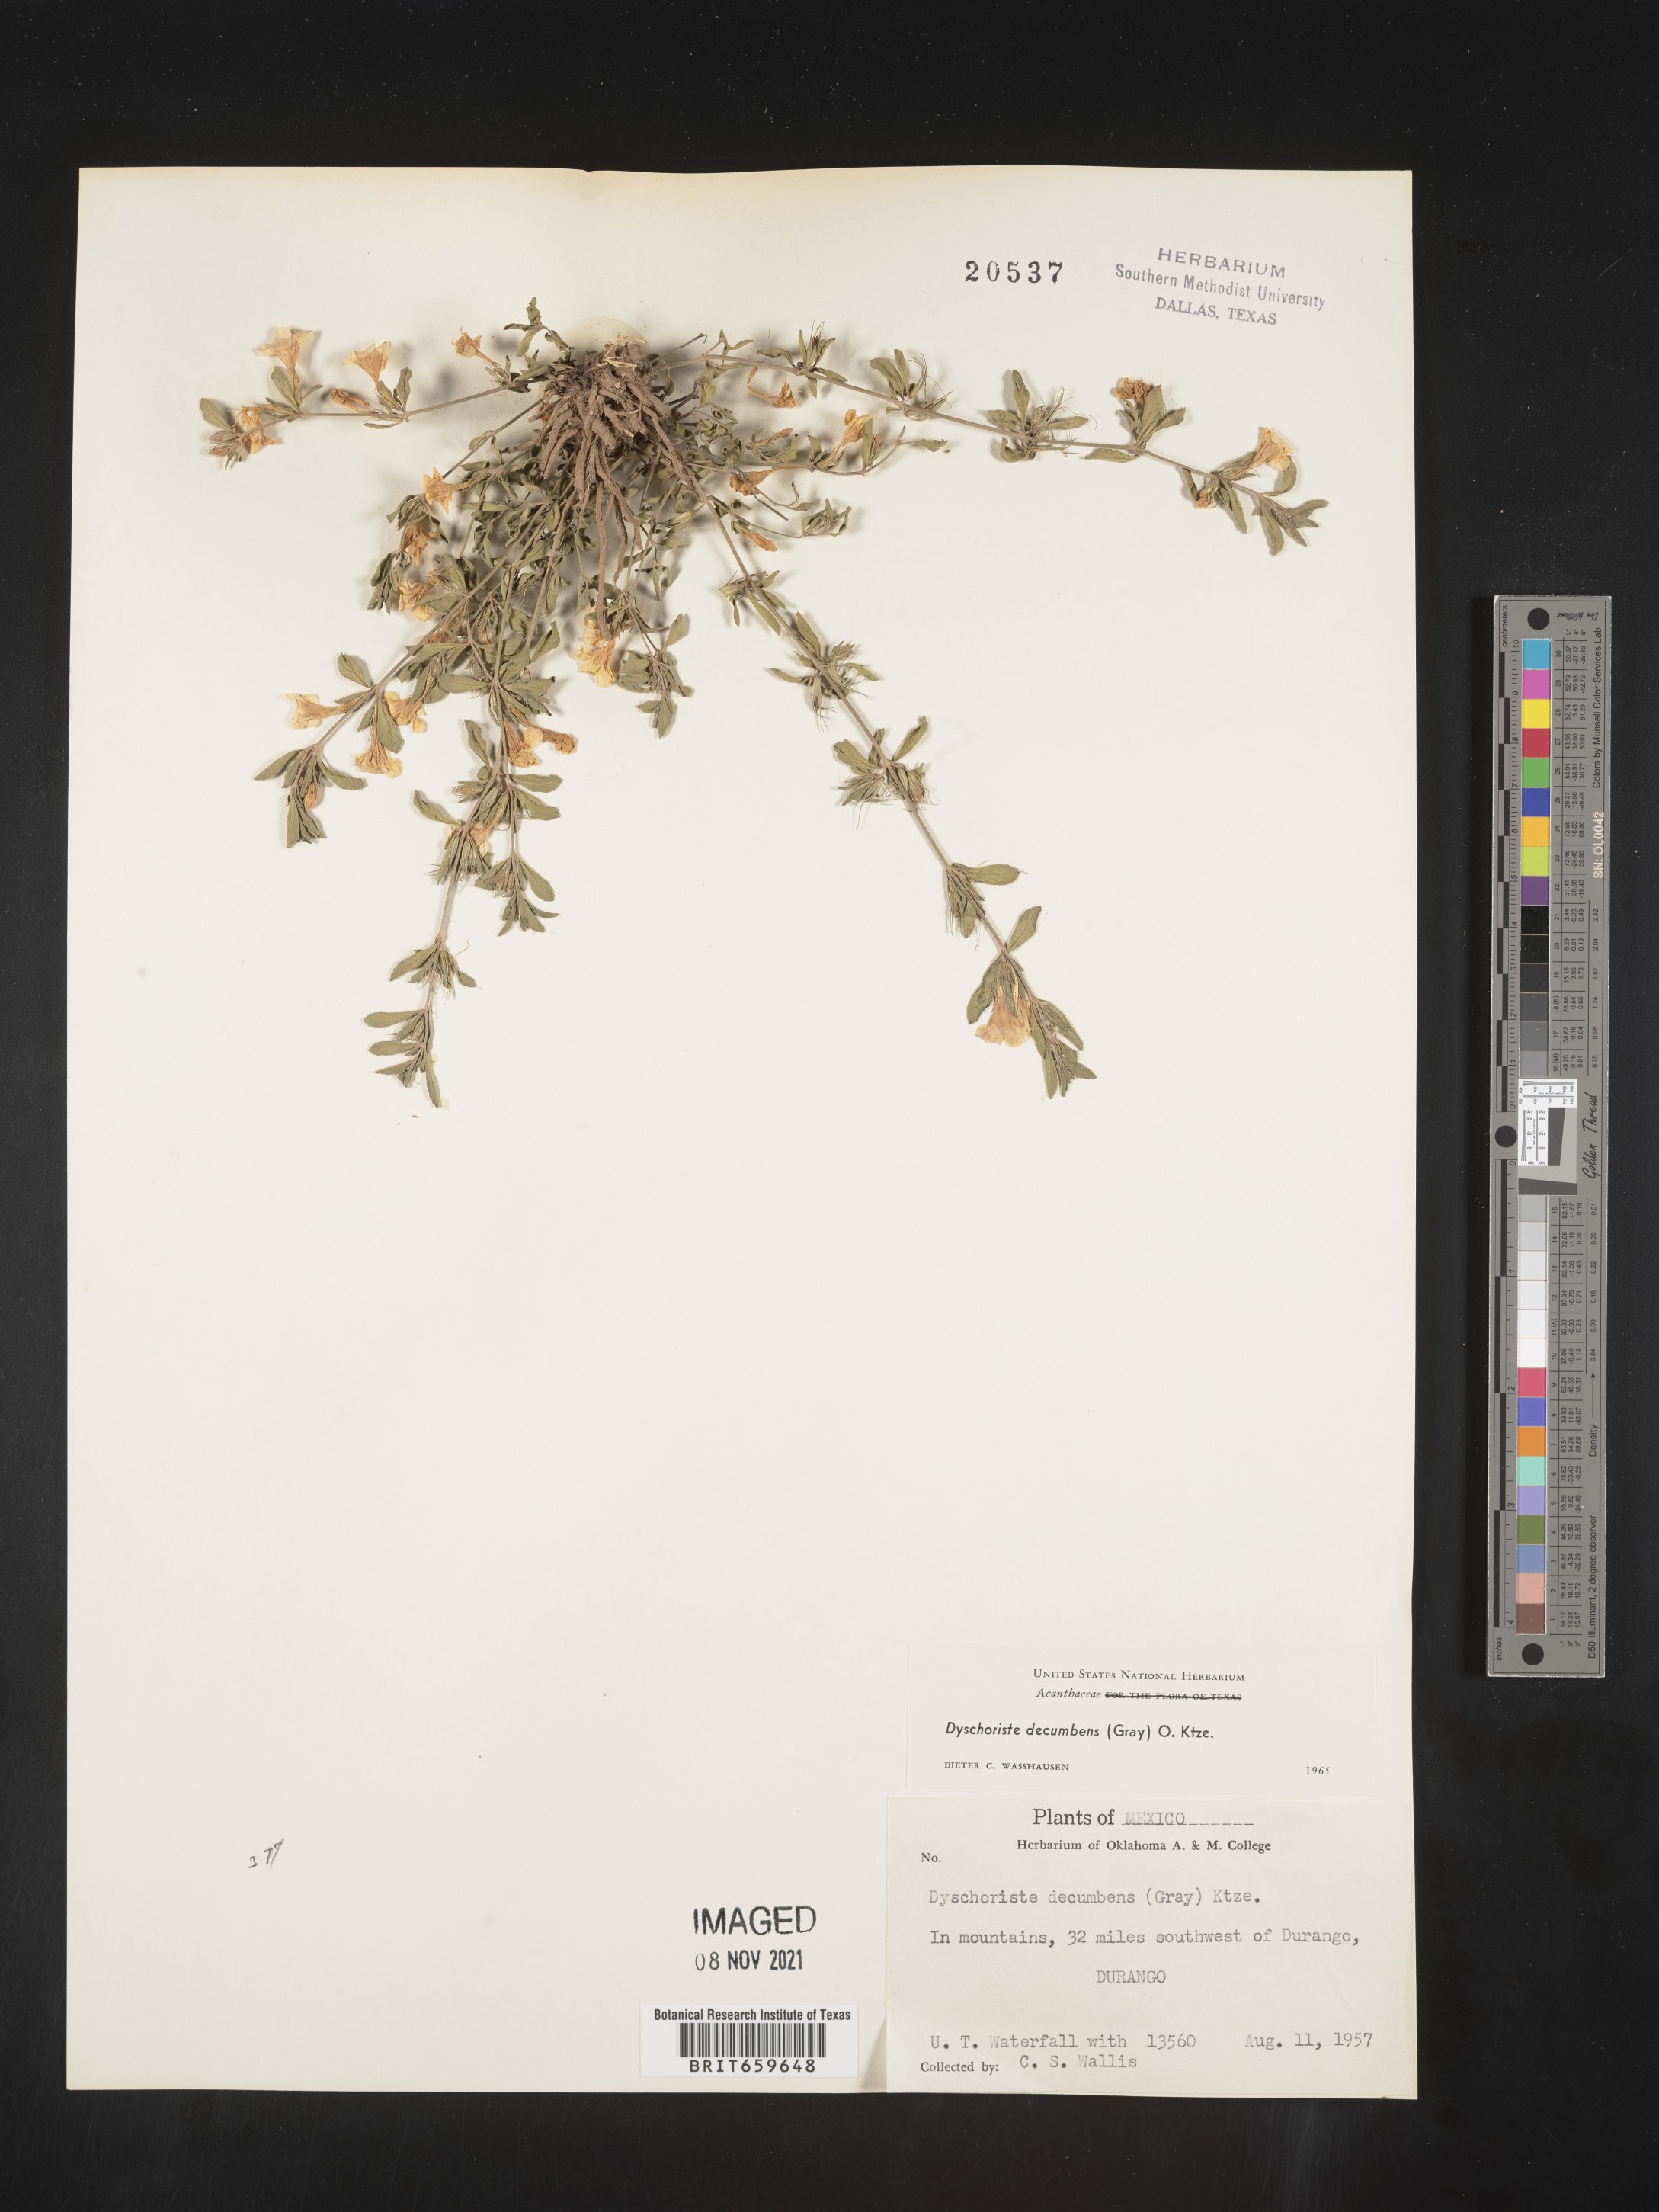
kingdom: Plantae
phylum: Tracheophyta
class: Magnoliopsida
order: Lamiales
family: Acanthaceae
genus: Dyschoriste
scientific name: Dyschoriste
